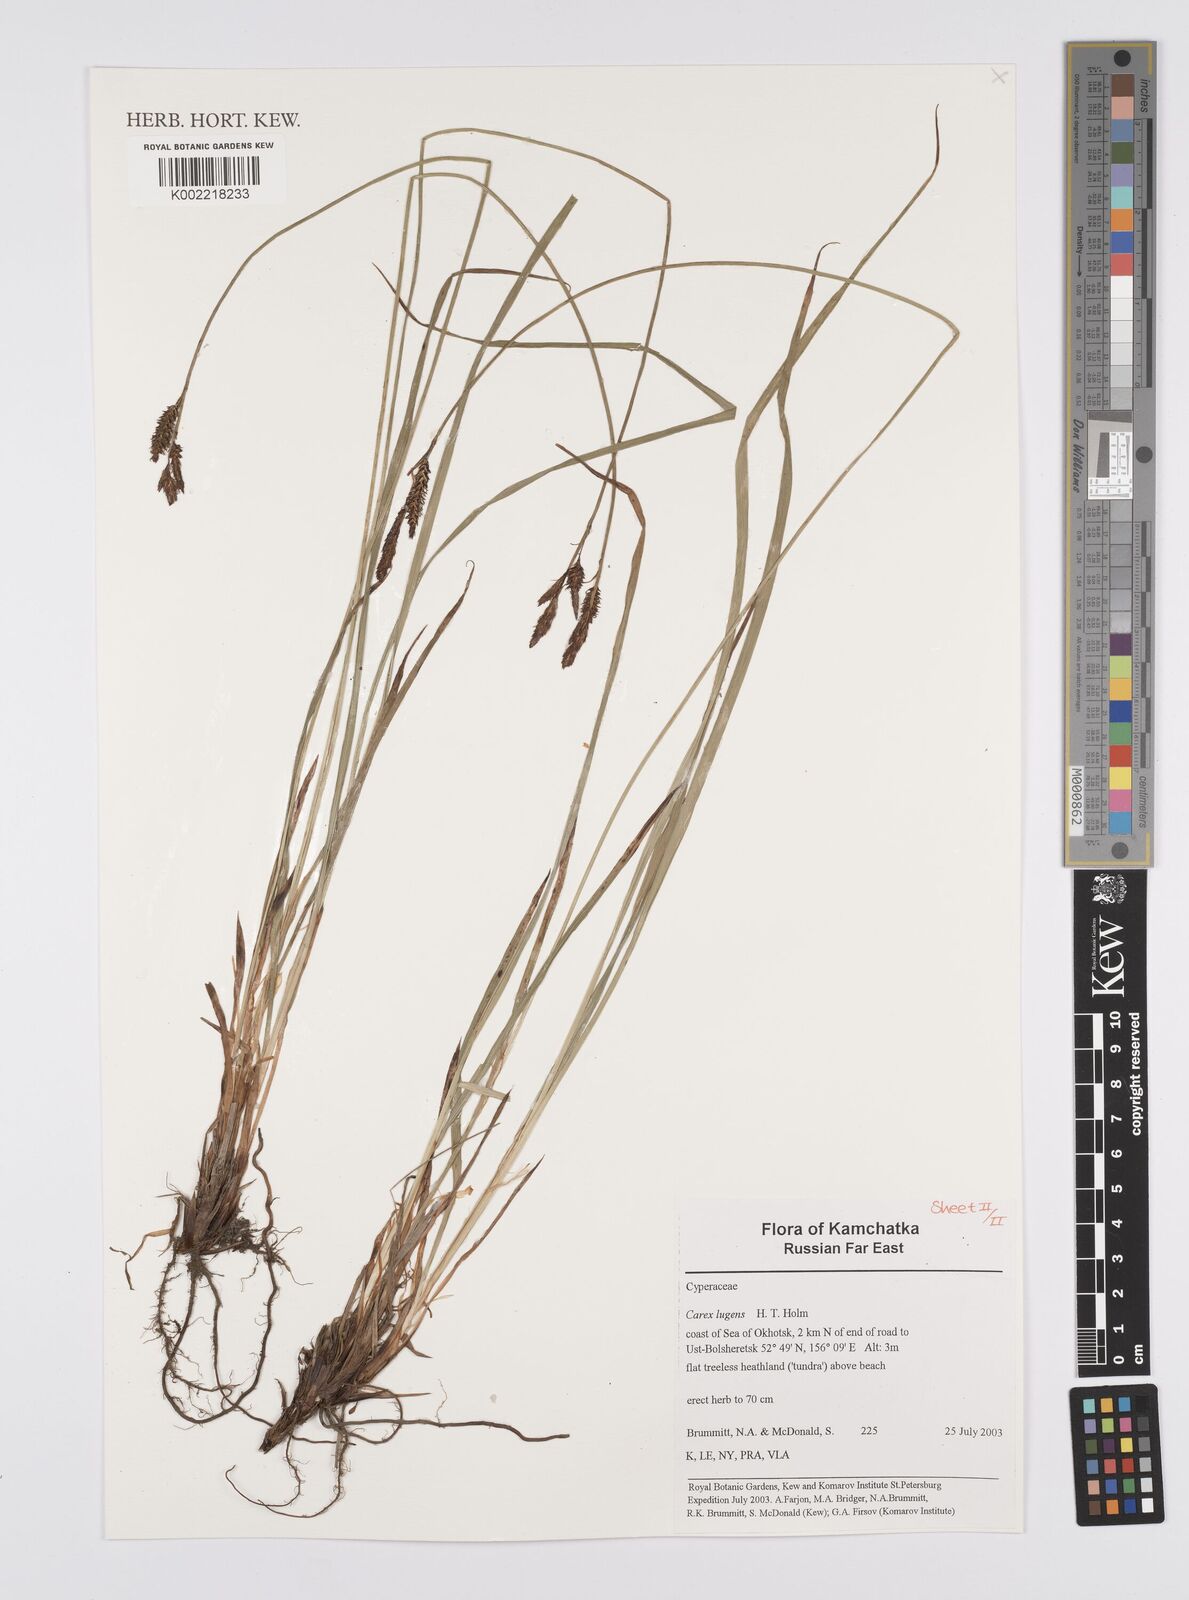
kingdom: Plantae
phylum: Tracheophyta
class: Liliopsida
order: Poales
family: Cyperaceae
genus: Carex
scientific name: Carex bigelowii
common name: Stiff sedge
